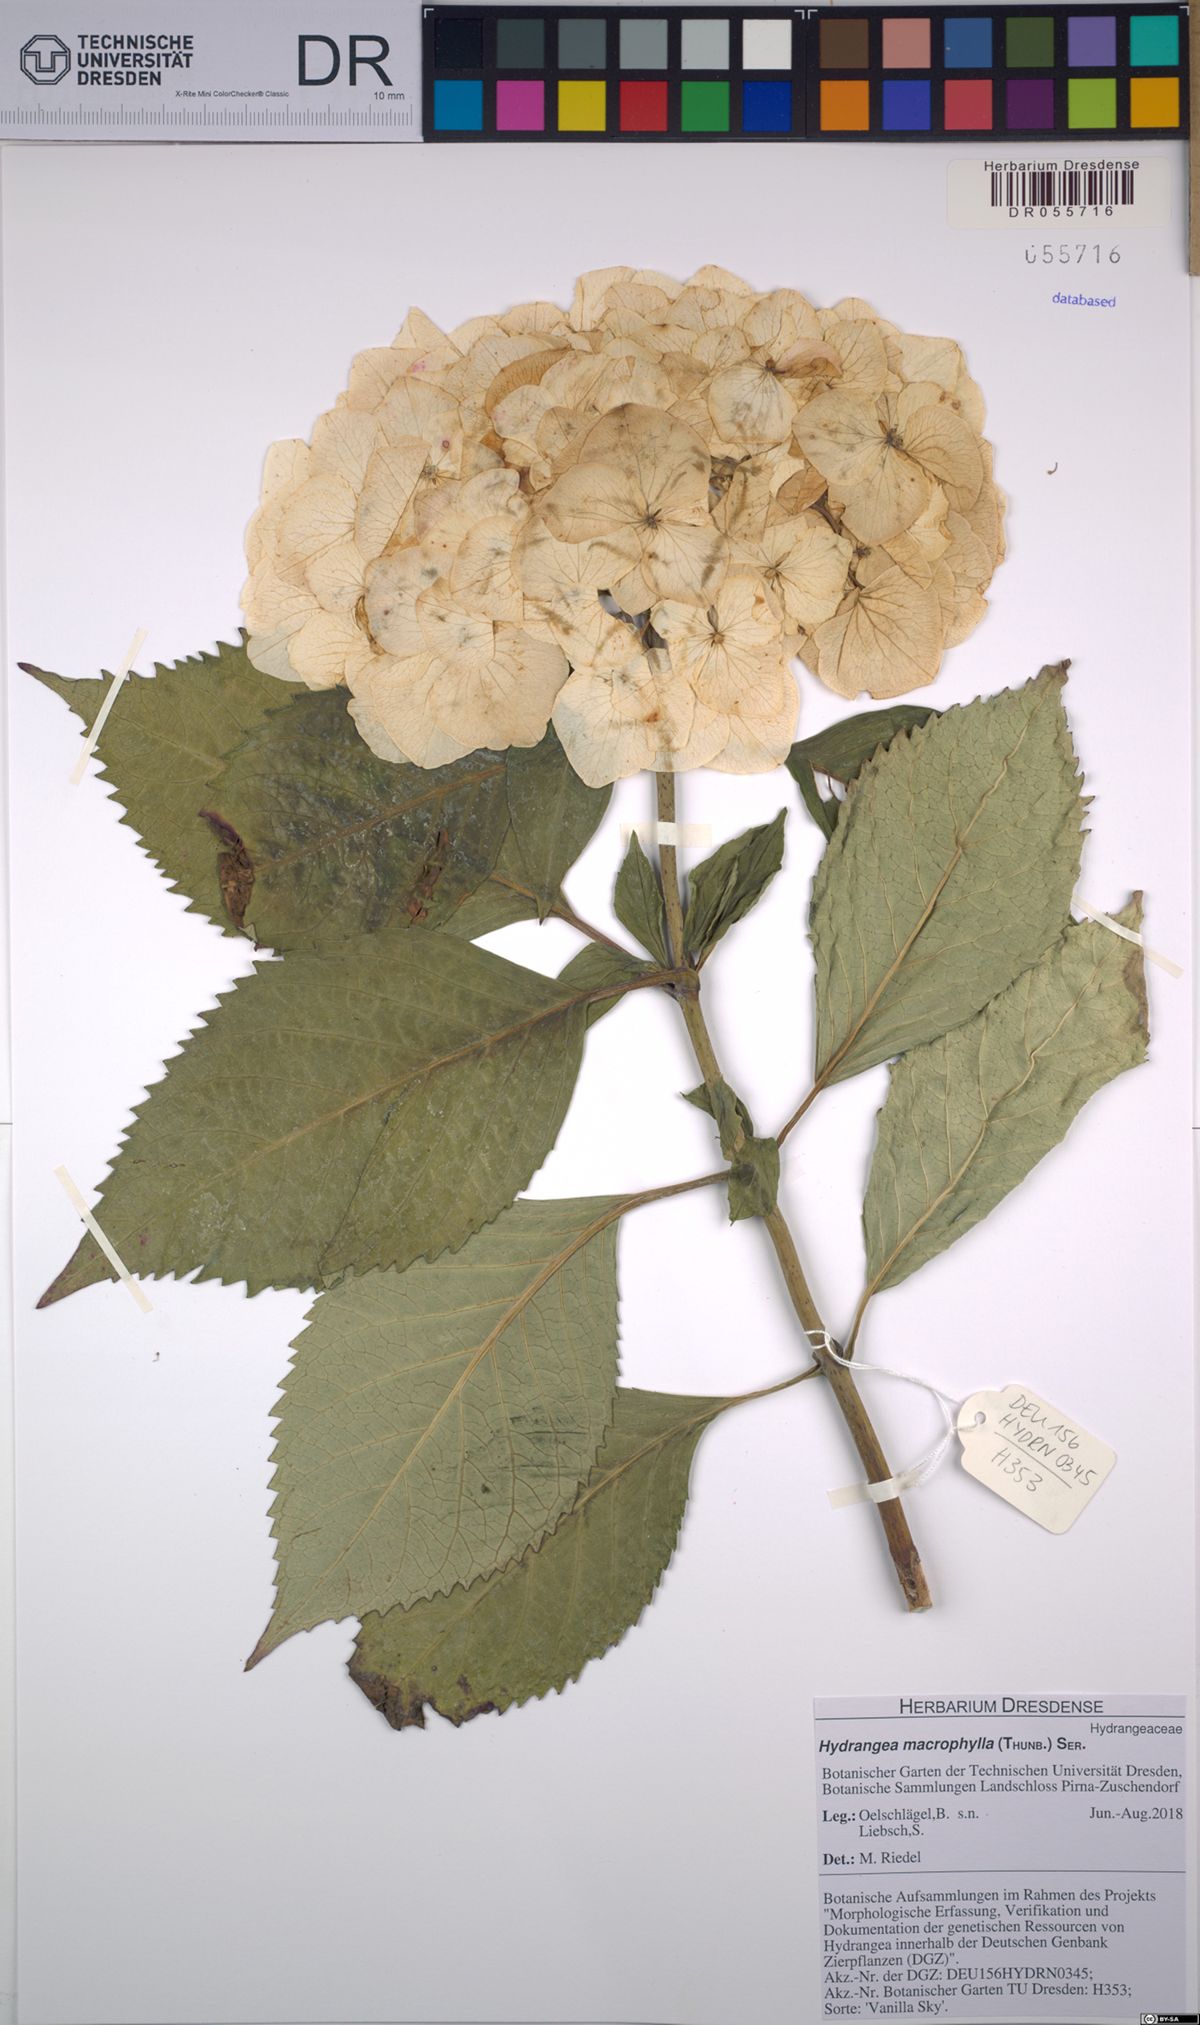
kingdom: Plantae
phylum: Tracheophyta
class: Magnoliopsida
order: Cornales
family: Hydrangeaceae
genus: Hydrangea
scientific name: Hydrangea macrophylla
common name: Hydrangea
